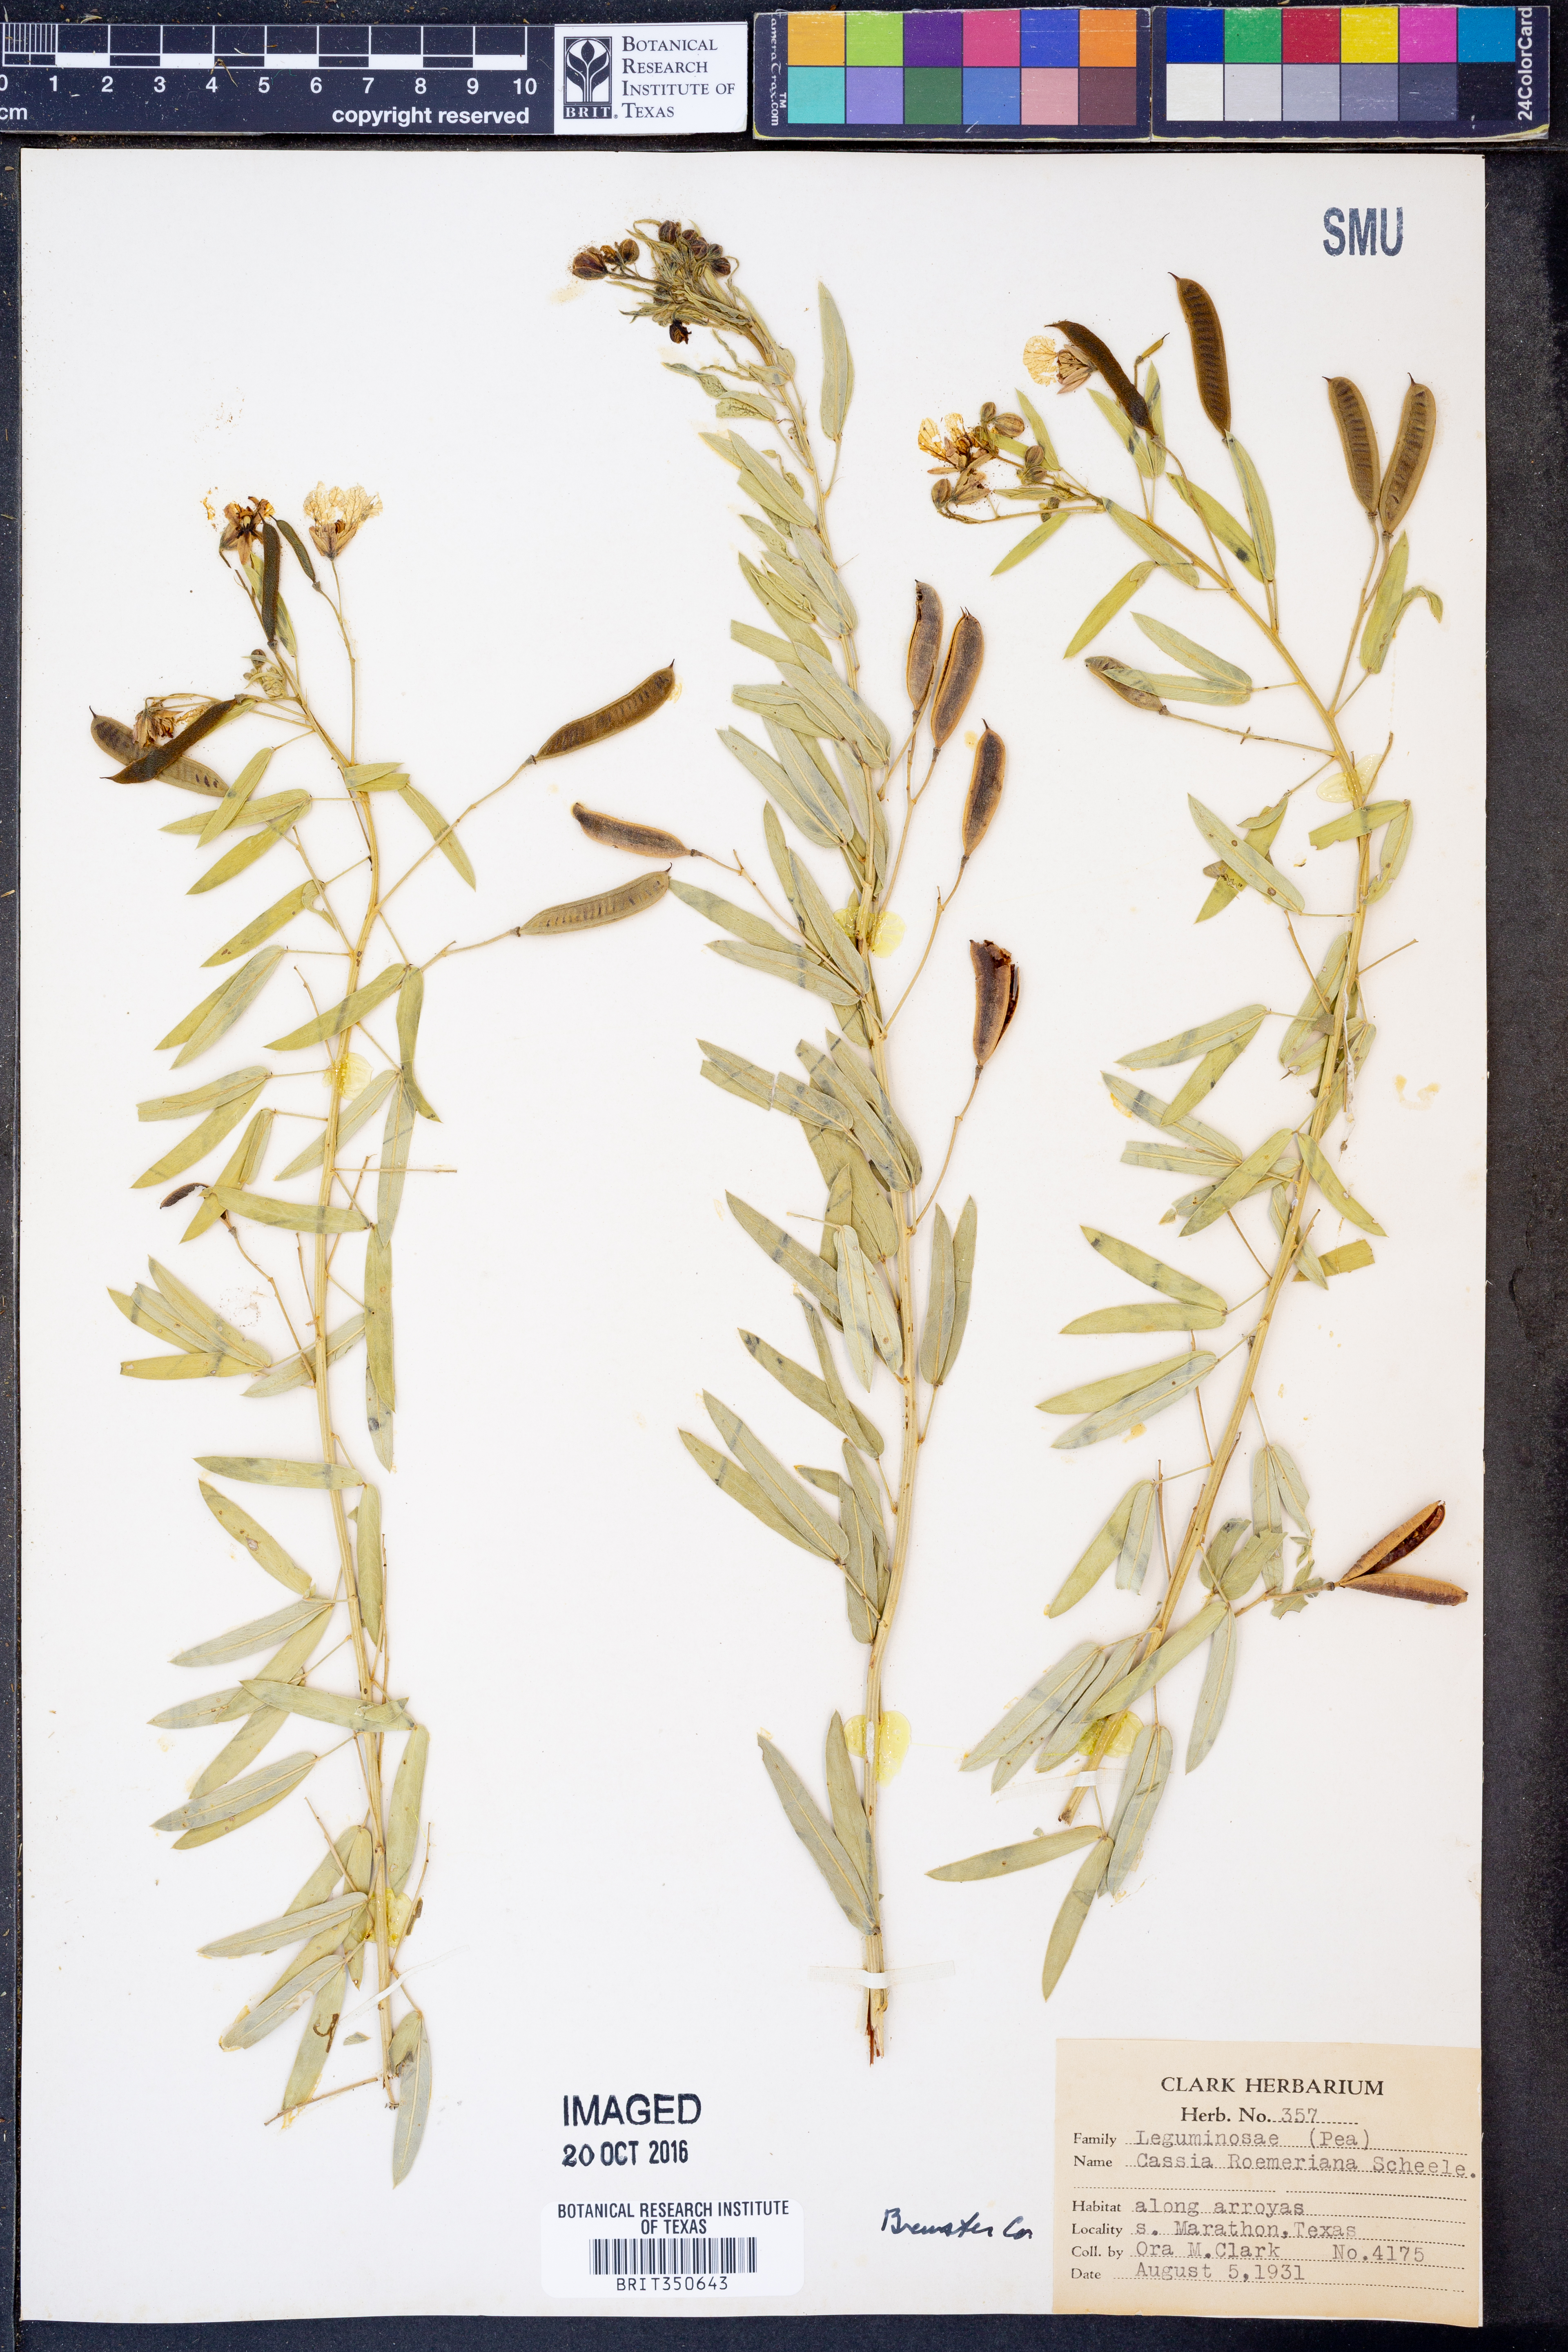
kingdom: Plantae
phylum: Tracheophyta
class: Magnoliopsida
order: Fabales
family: Fabaceae
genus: Senna
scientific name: Senna roemeriana
